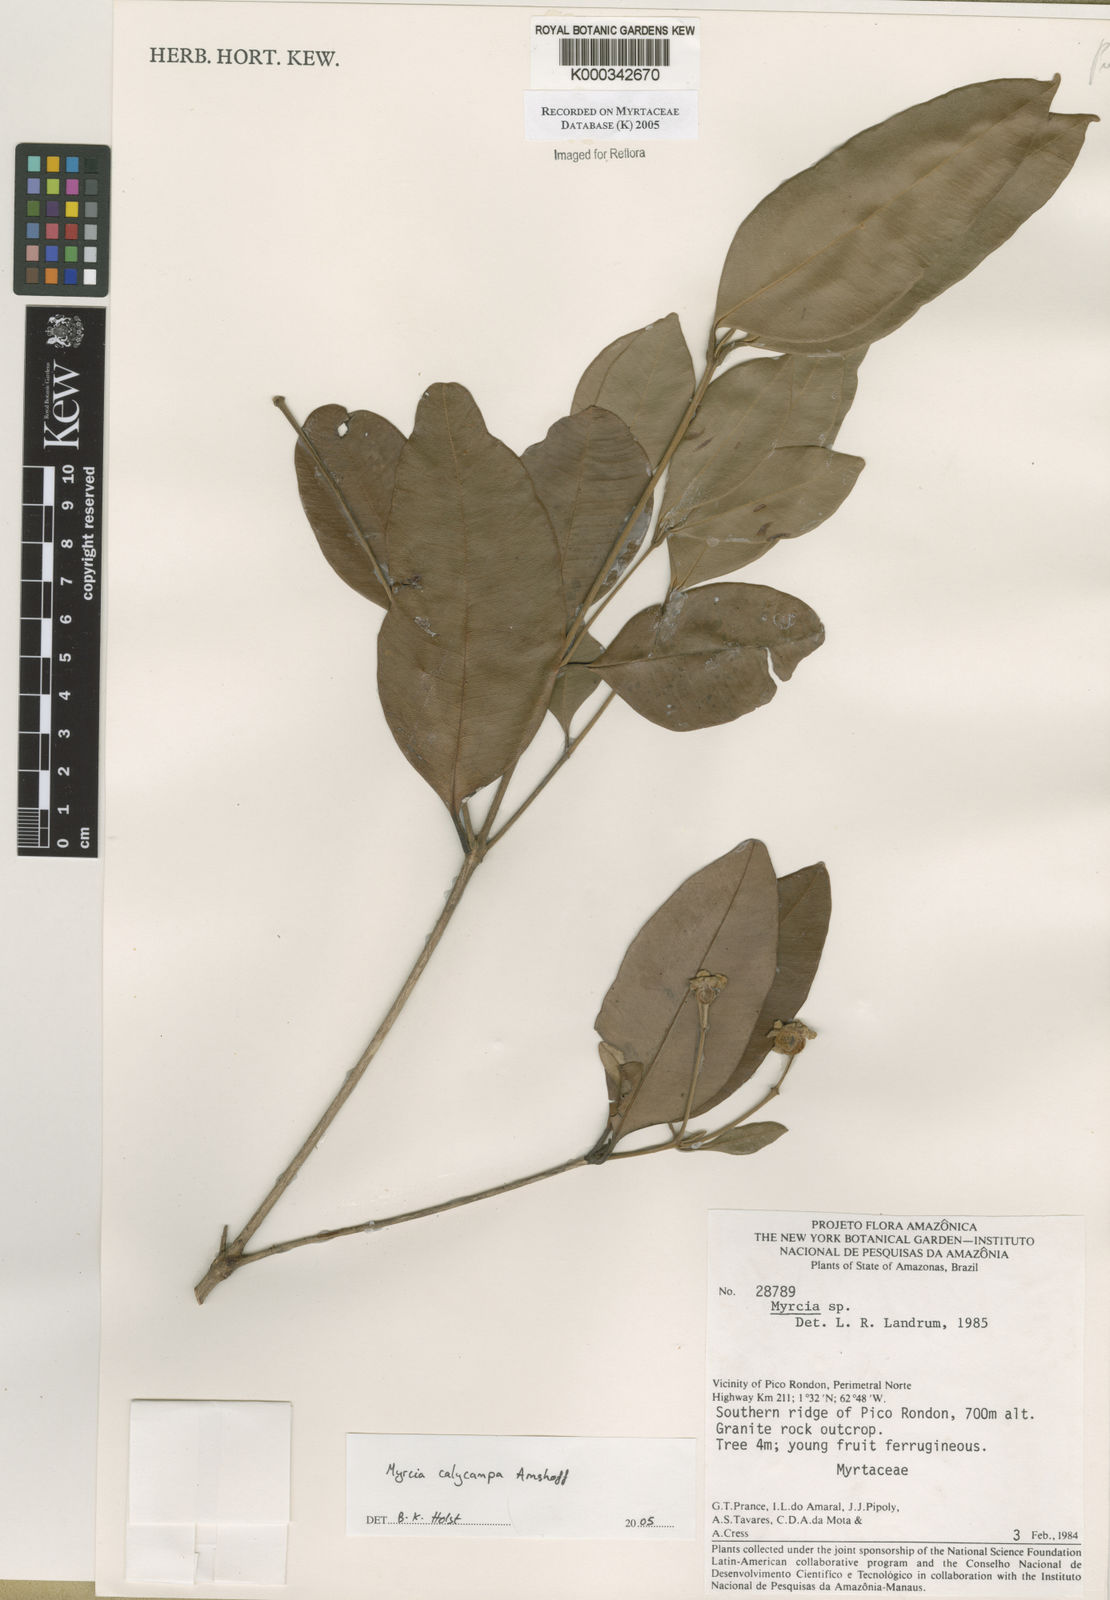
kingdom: Plantae
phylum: Tracheophyta
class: Magnoliopsida
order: Myrtales
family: Myrtaceae
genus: Myrcia
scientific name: Myrcia calycampa
